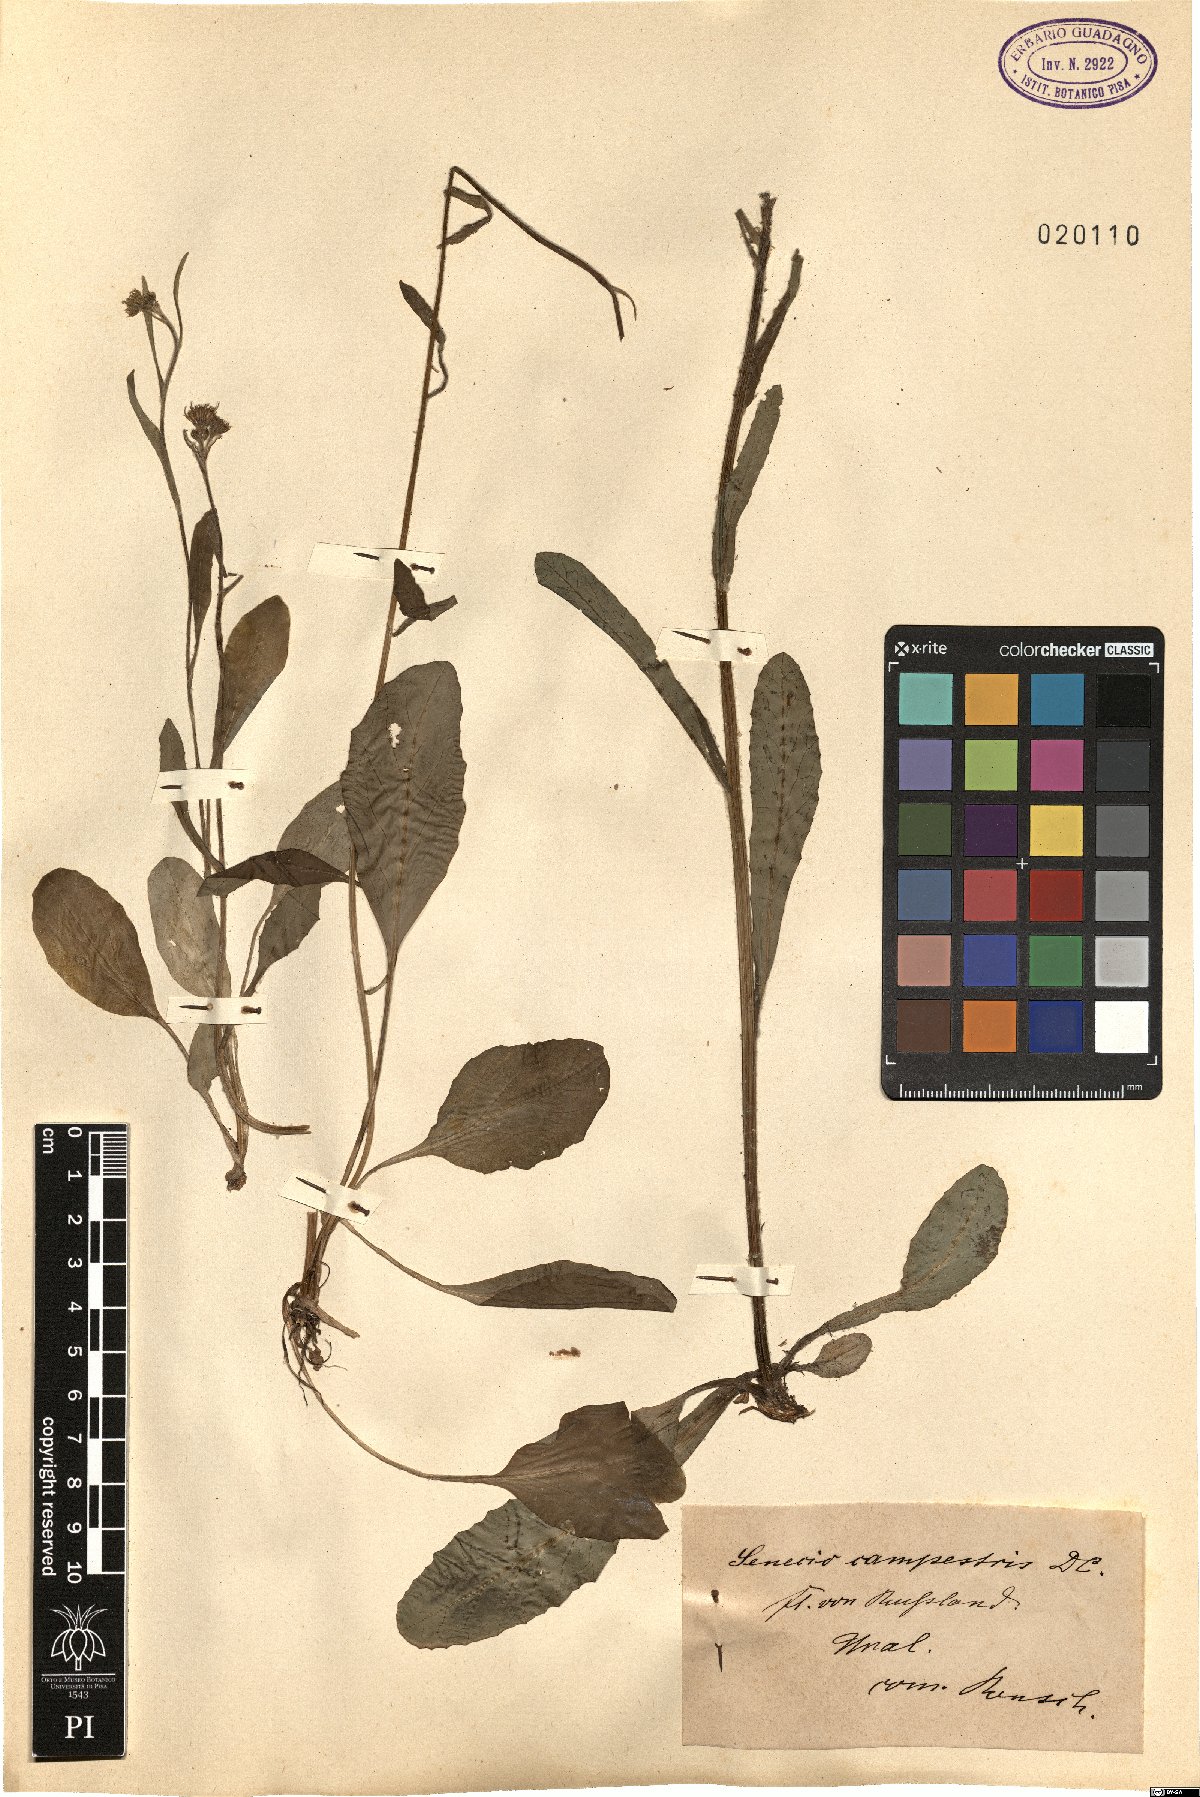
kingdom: Plantae
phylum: Tracheophyta
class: Magnoliopsida
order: Asterales
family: Asteraceae
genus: Tephroseris
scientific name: Tephroseris integrifolia
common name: Field fleawort
